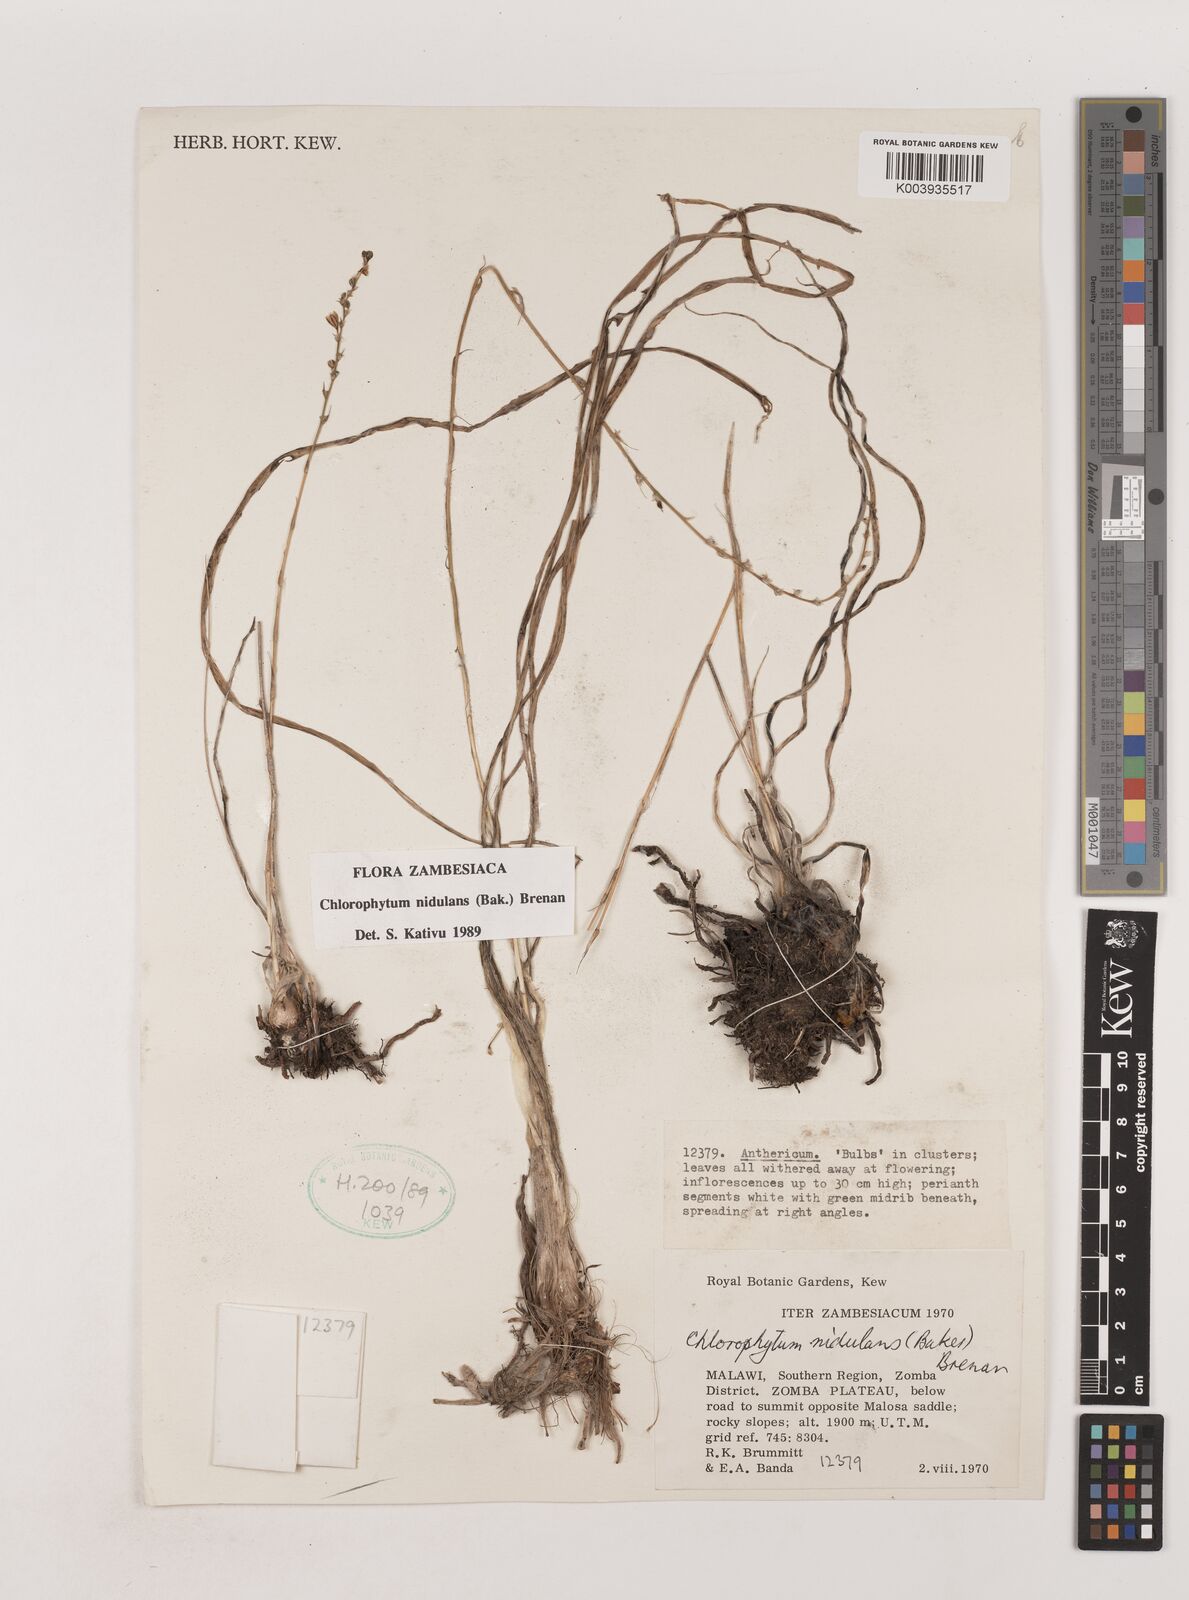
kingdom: Plantae
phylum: Tracheophyta
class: Liliopsida
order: Asparagales
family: Asparagaceae
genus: Chlorophytum
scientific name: Chlorophytum nidulans
